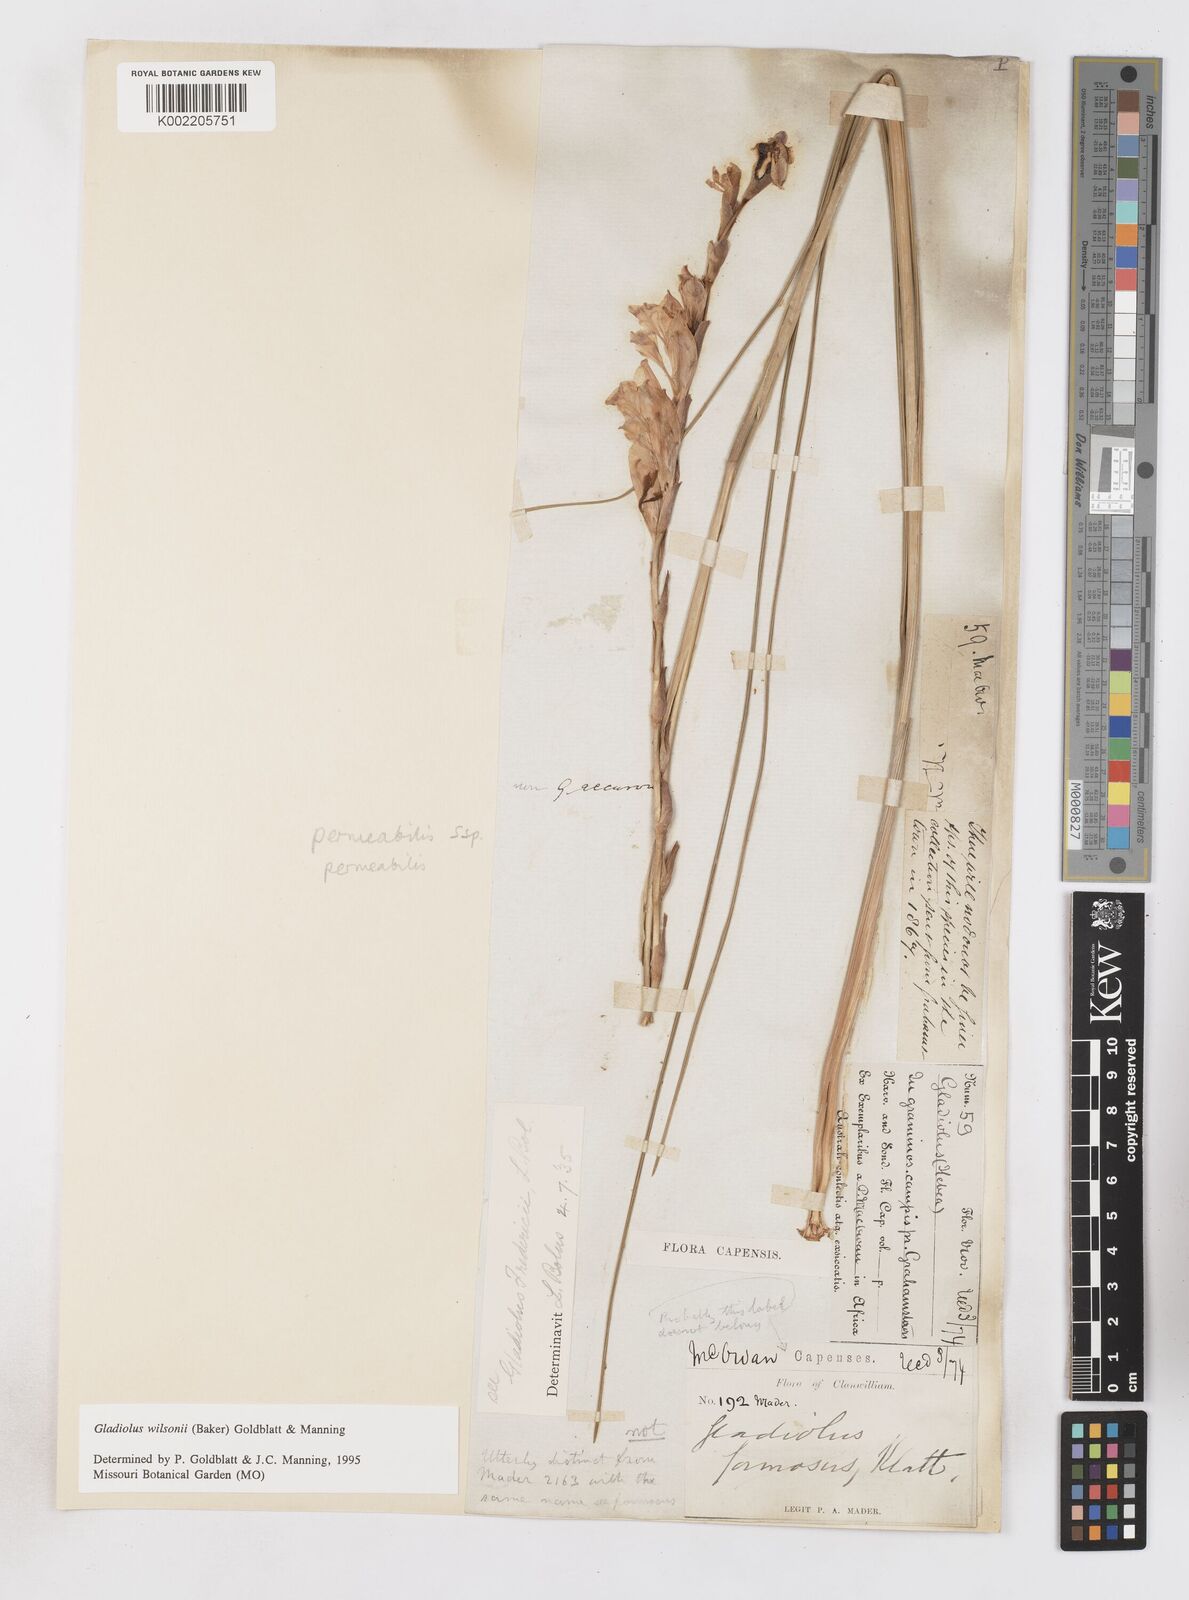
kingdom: Plantae
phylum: Tracheophyta
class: Liliopsida
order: Asparagales
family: Iridaceae
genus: Gladiolus
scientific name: Gladiolus wilsonii
